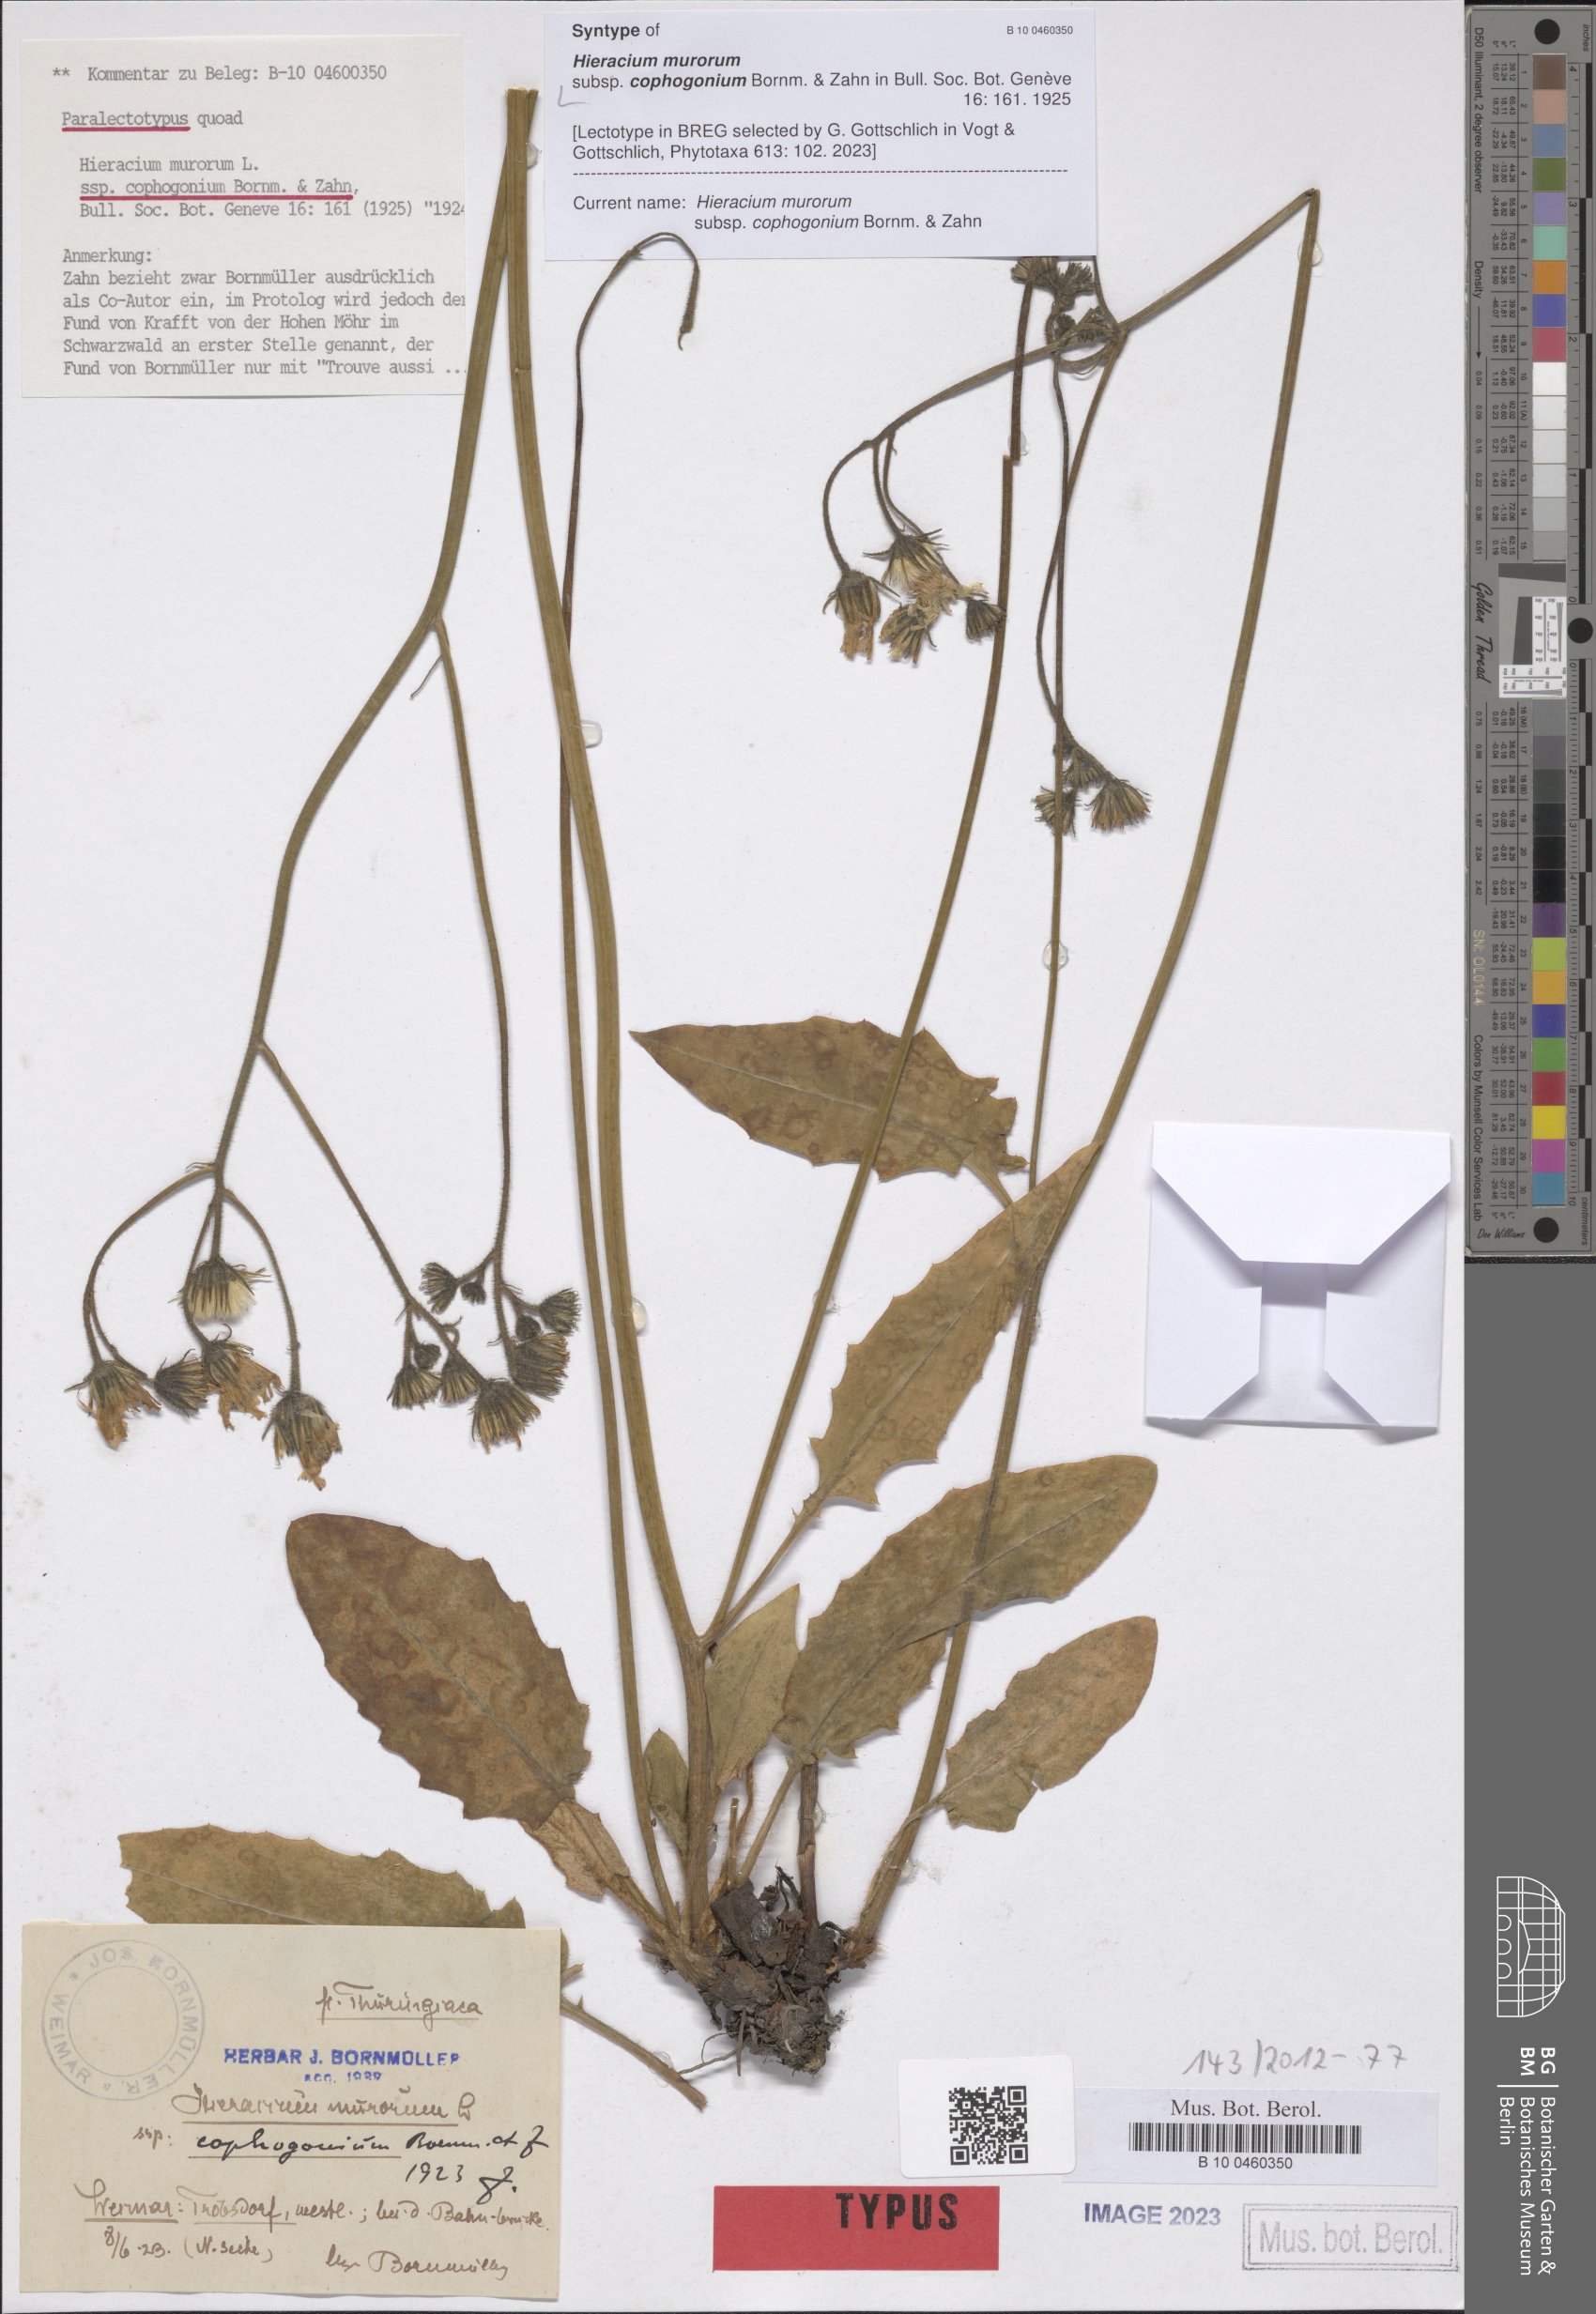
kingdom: Plantae
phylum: Tracheophyta
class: Magnoliopsida
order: Asterales
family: Asteraceae
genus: Hieracium
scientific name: Hieracium murorum
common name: Wall hawkweed
